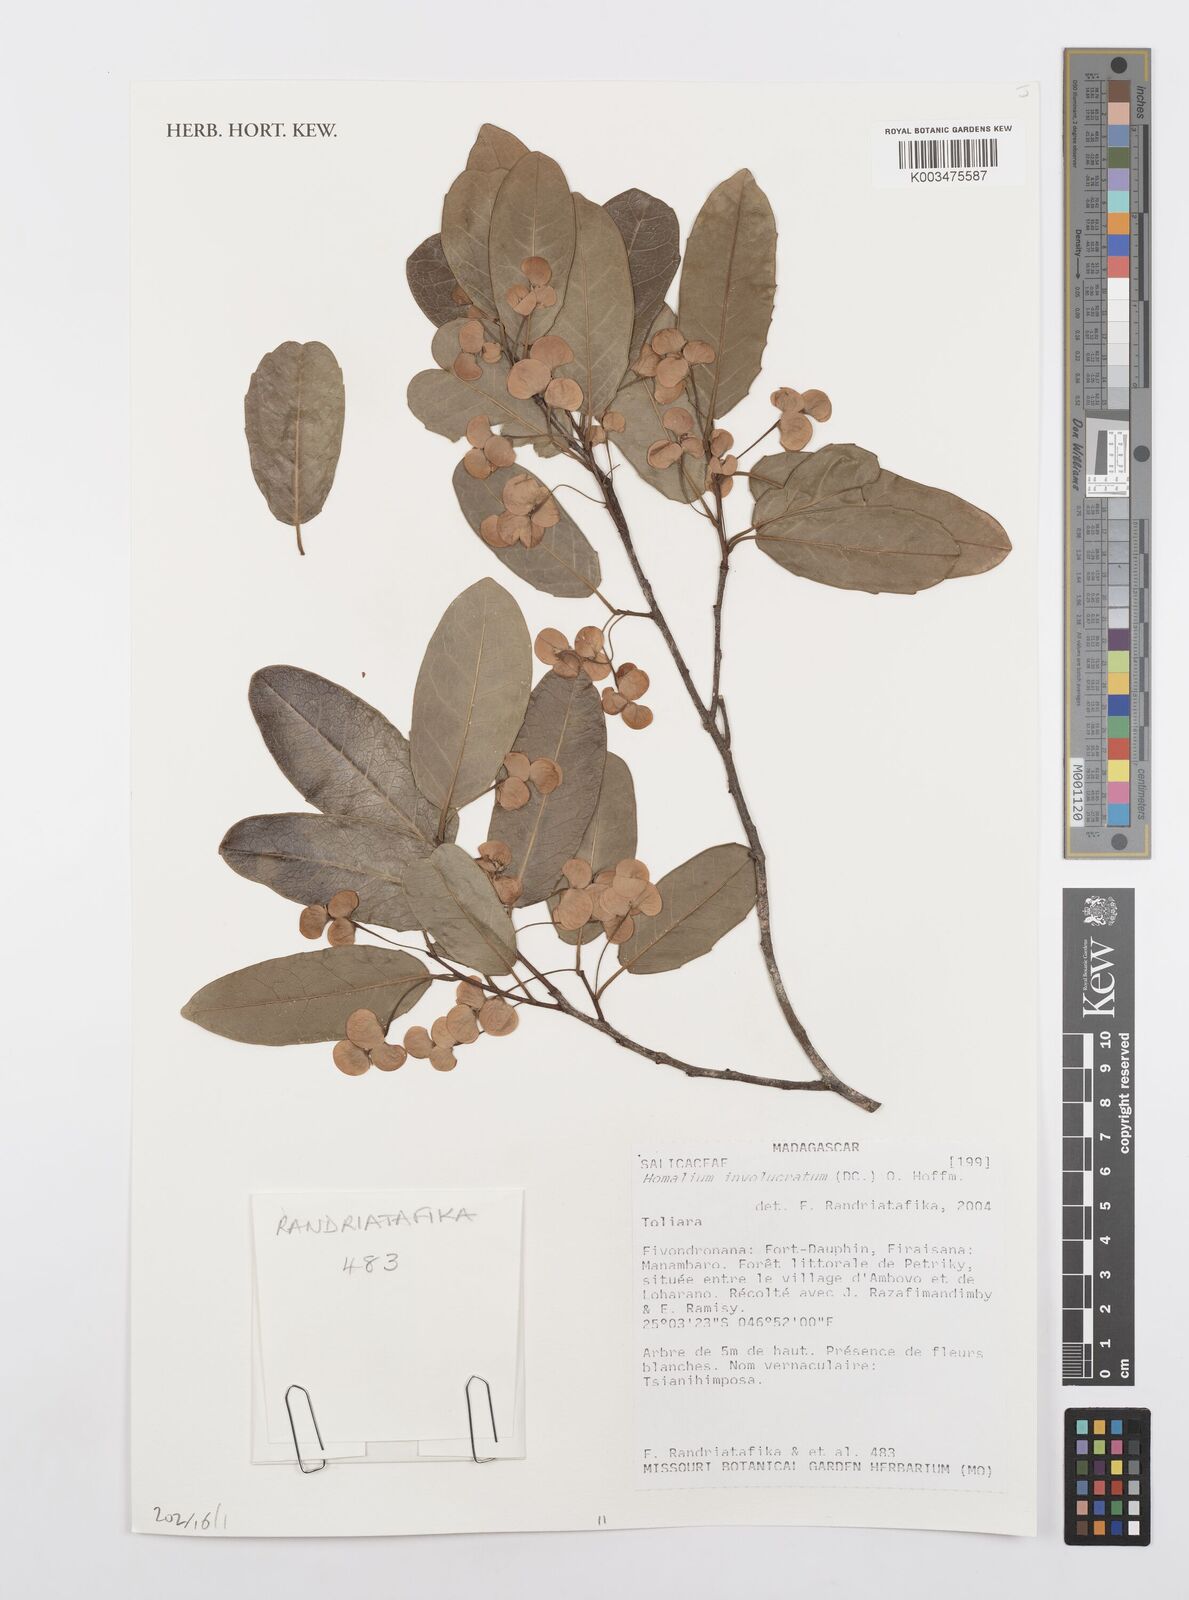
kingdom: Plantae
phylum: Tracheophyta
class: Magnoliopsida
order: Malpighiales
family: Salicaceae
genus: Homalium
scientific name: Homalium involucratum
